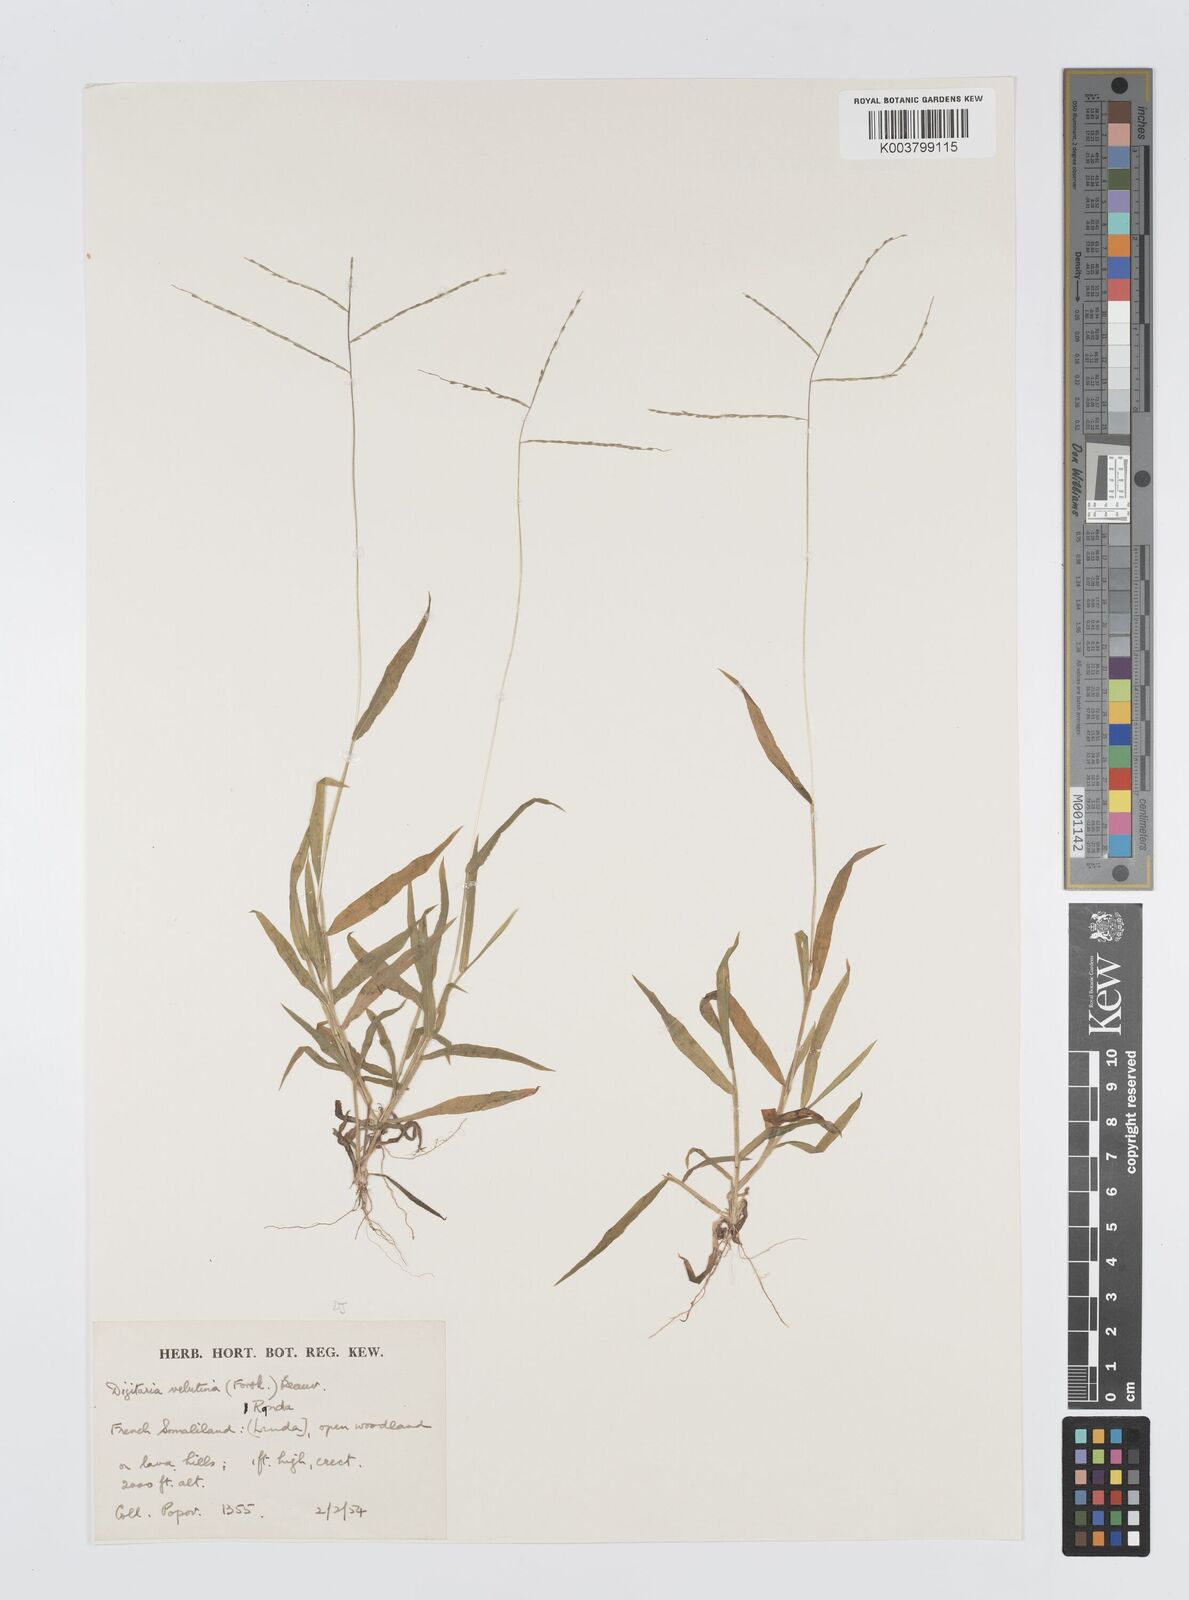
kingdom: Plantae
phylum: Tracheophyta
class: Liliopsida
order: Poales
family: Poaceae
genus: Digitaria
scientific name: Digitaria velutina
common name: Long-plume finger grass
